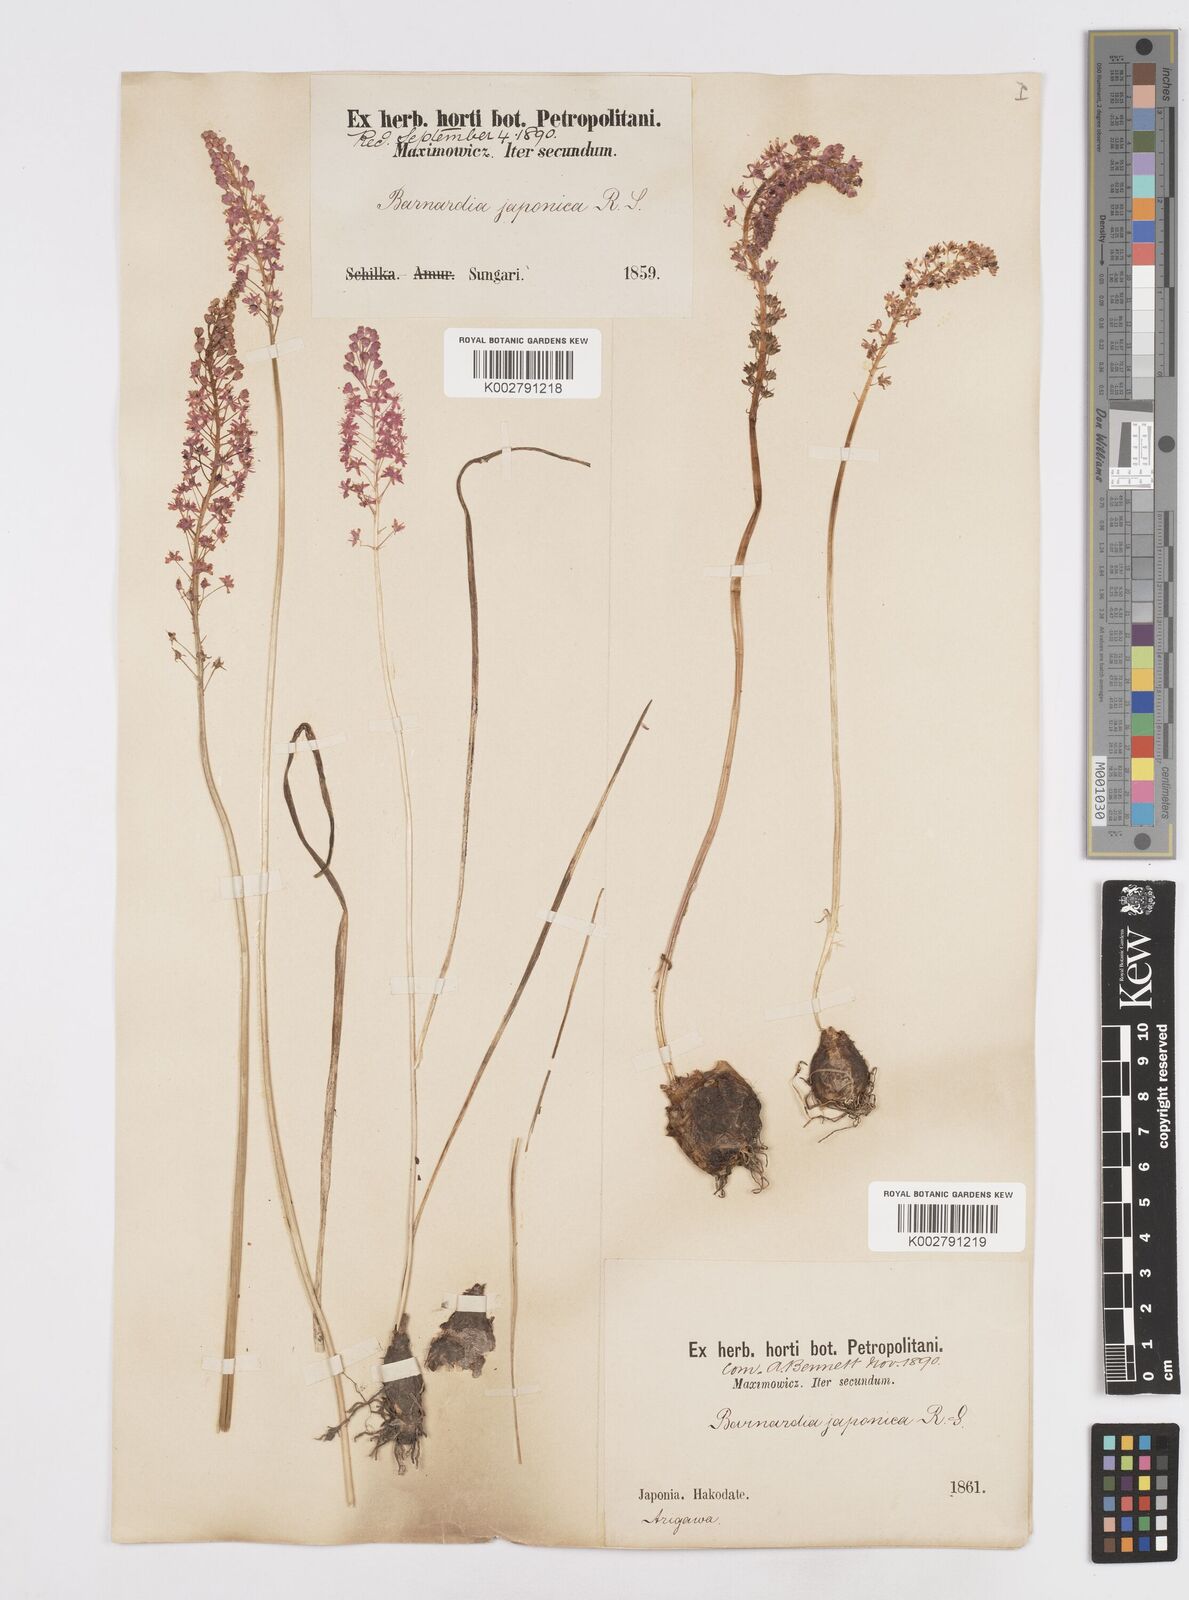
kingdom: Plantae
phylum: Tracheophyta
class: Liliopsida
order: Liliales
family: Melanthiaceae
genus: Helonias
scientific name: Helonias breviscapa
